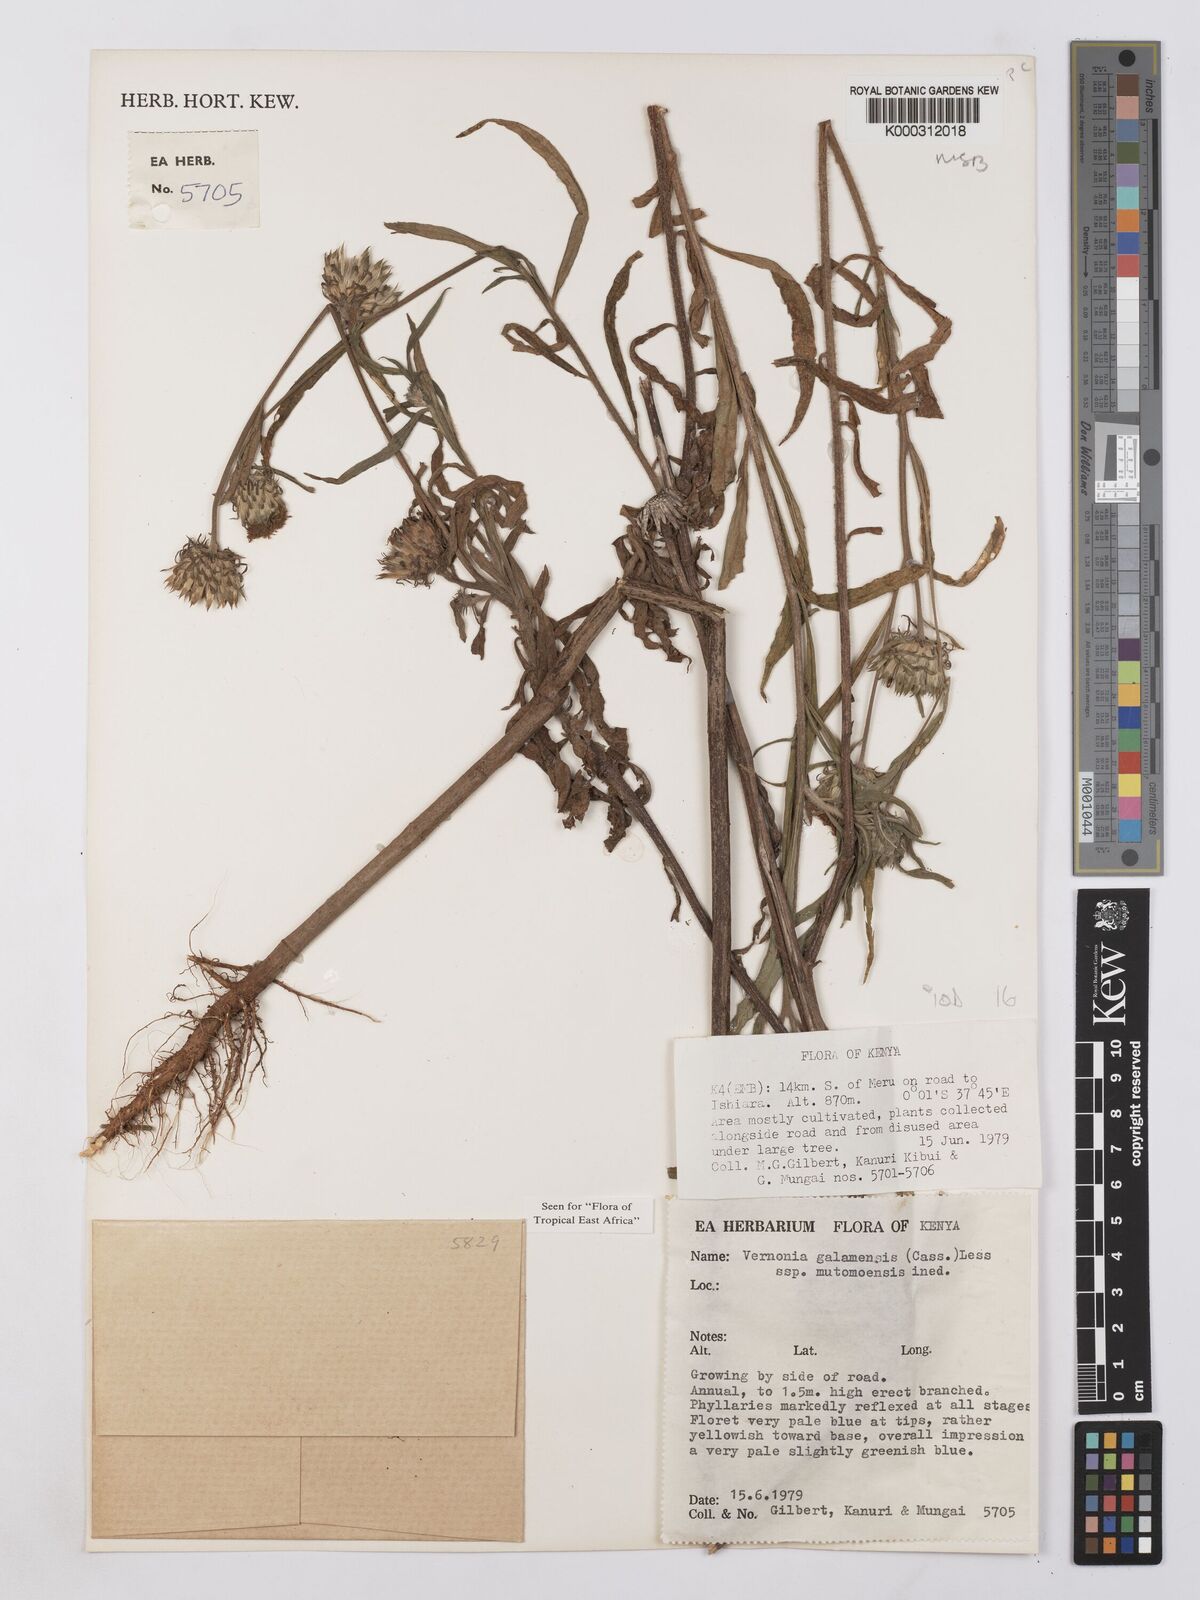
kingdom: Plantae
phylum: Tracheophyta
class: Magnoliopsida
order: Asterales
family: Asteraceae
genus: Vernonia
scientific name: Vernonia galamensis
